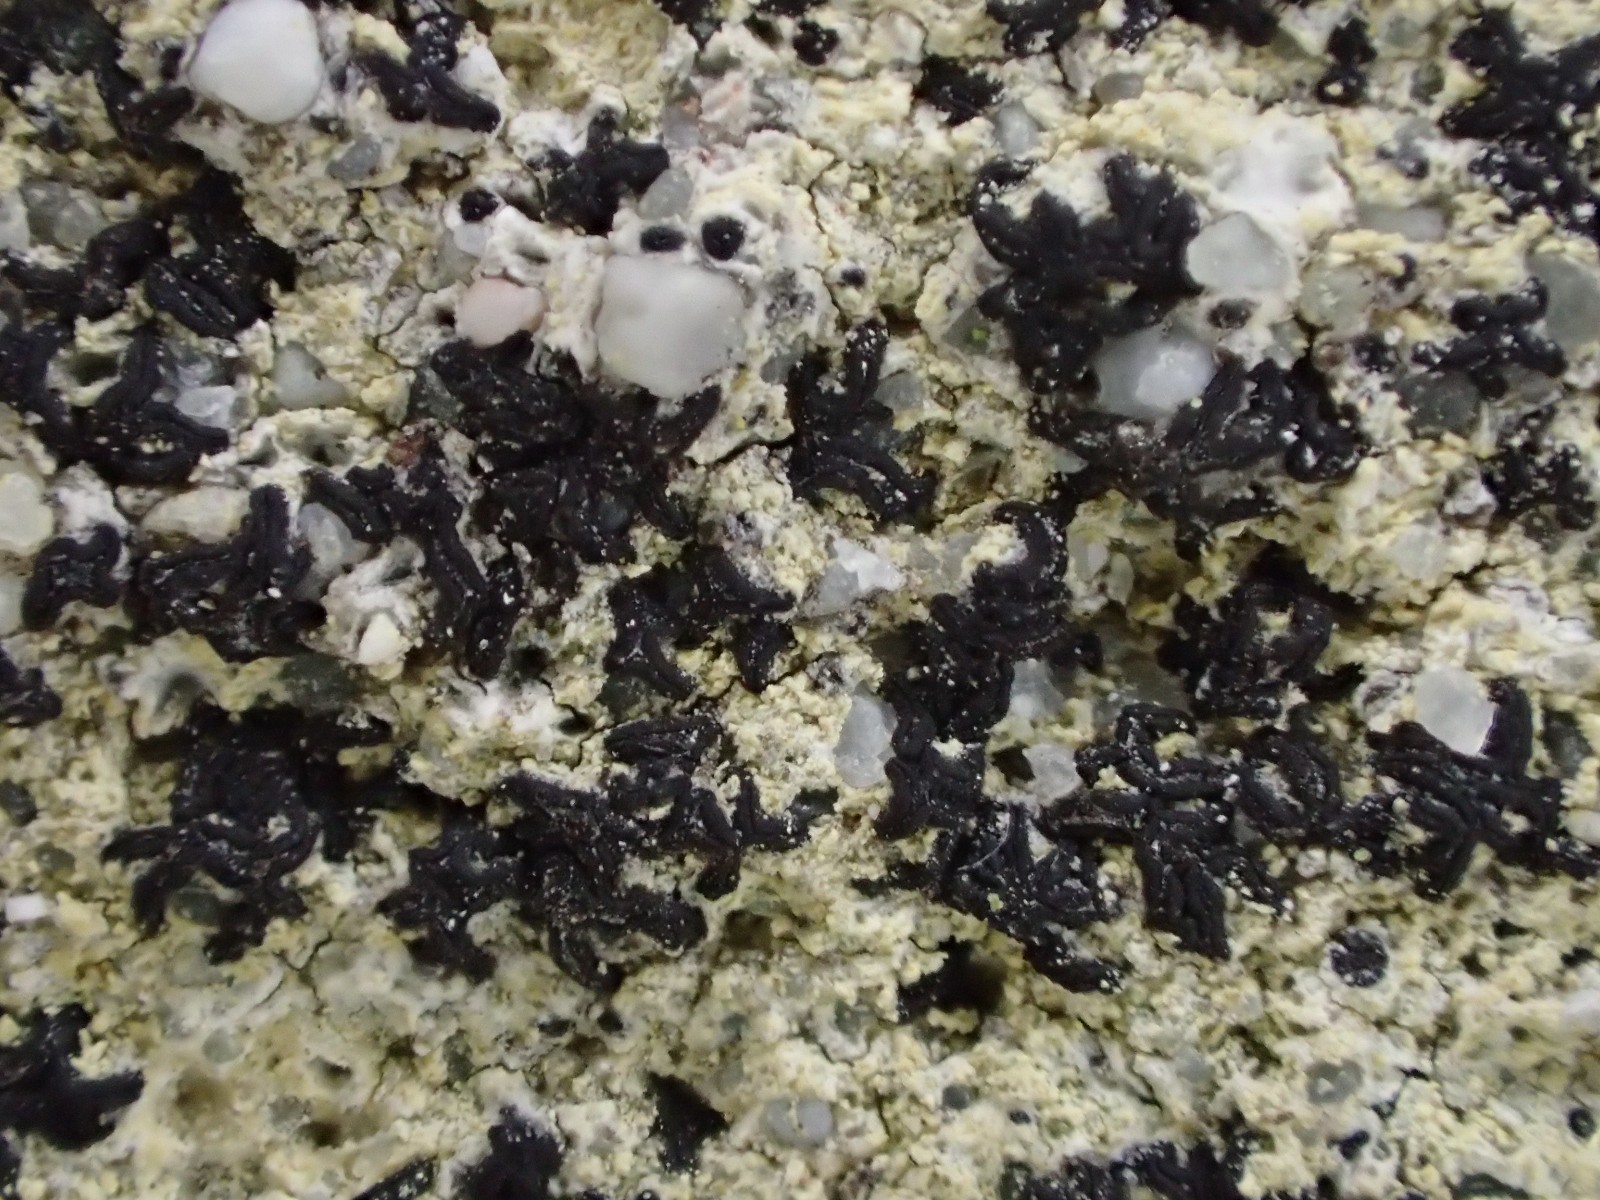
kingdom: Fungi
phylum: Ascomycota
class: Arthoniomycetes
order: Arthoniales
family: Arthoniaceae
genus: Arthonia
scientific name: Arthonia calcarea
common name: kalk-bogstavlav
